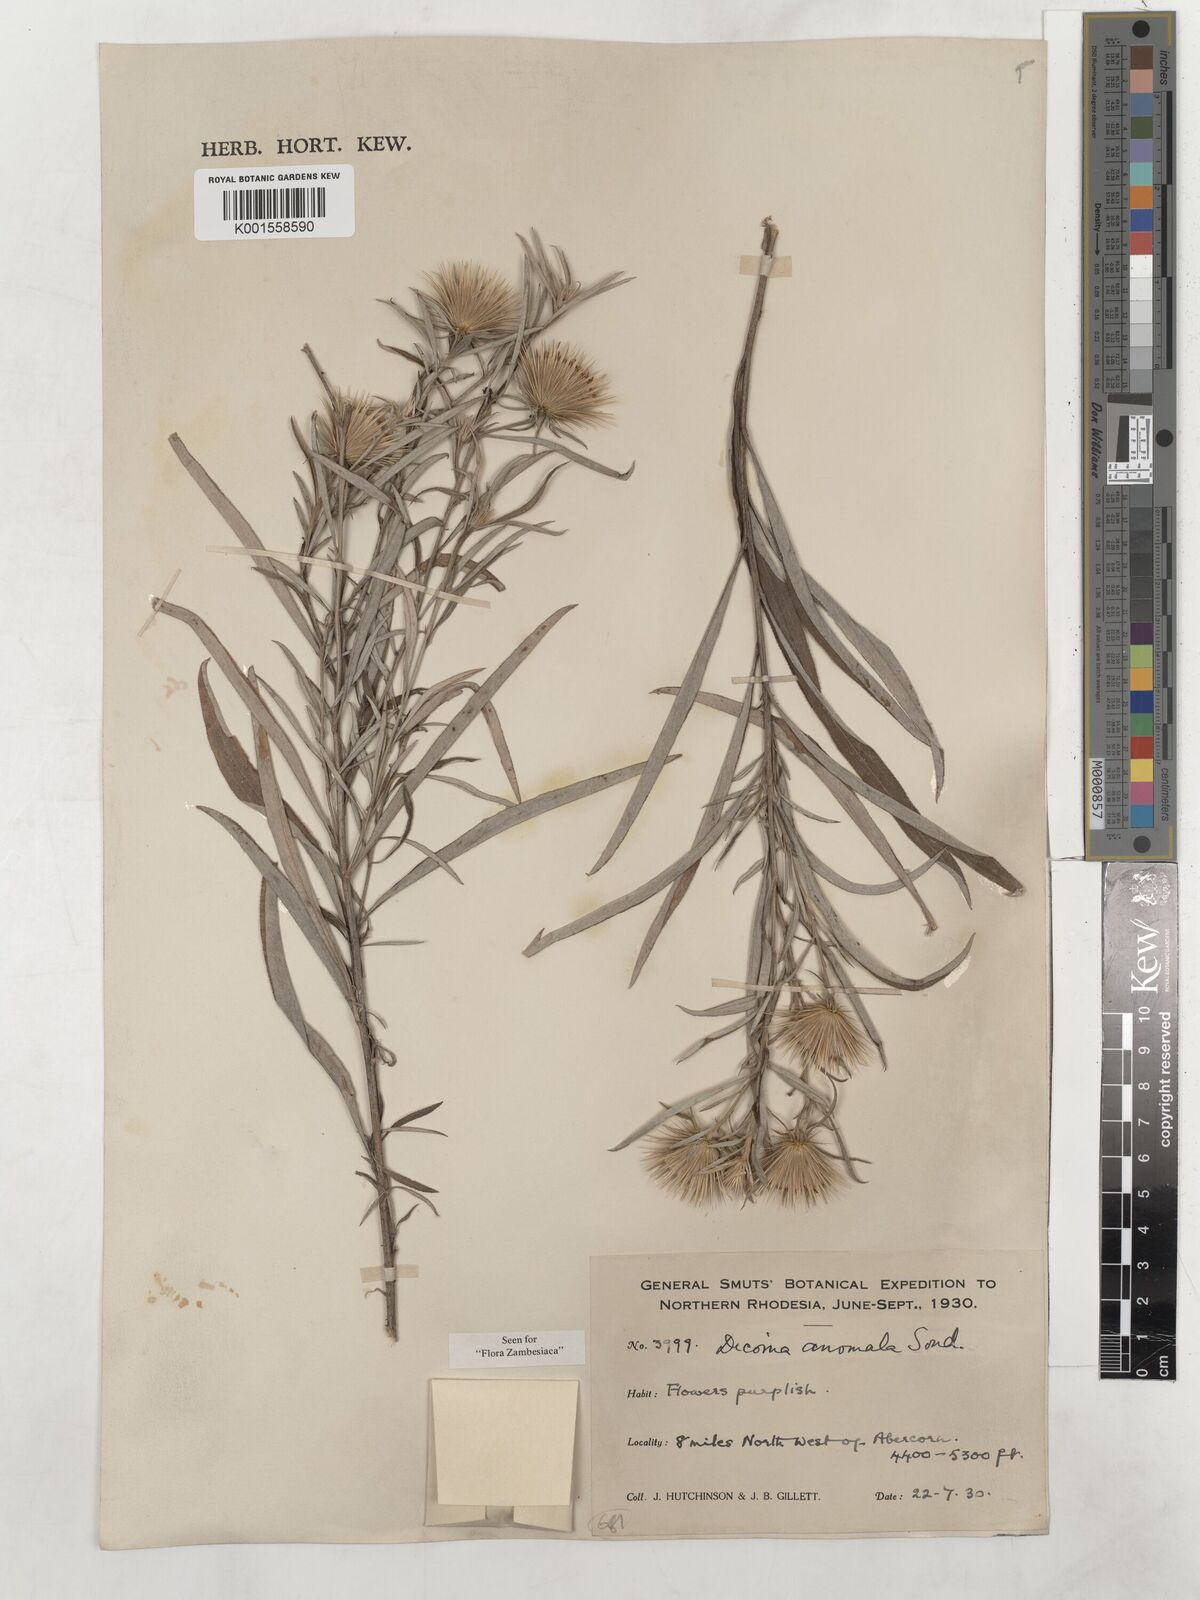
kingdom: Plantae
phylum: Tracheophyta
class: Magnoliopsida
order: Asterales
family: Asteraceae
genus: Dicoma
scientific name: Dicoma anomala
